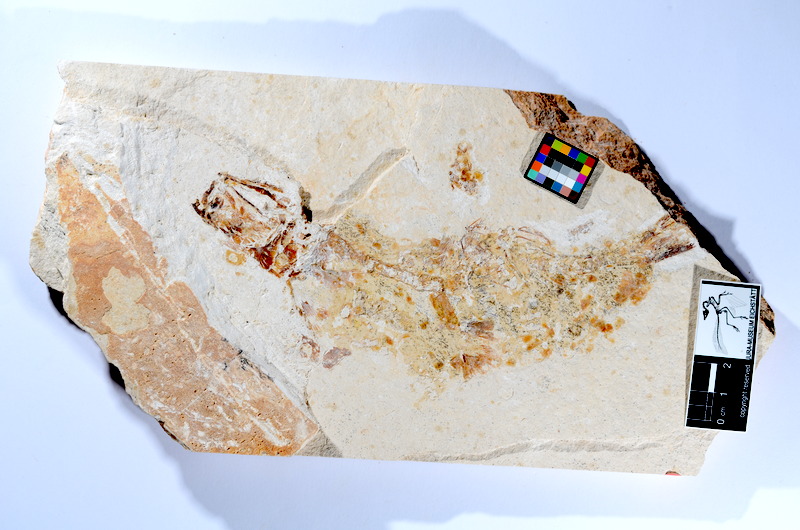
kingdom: Animalia
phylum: Chordata
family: Ascalaboidae
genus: Tharsis
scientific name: Tharsis dubius
